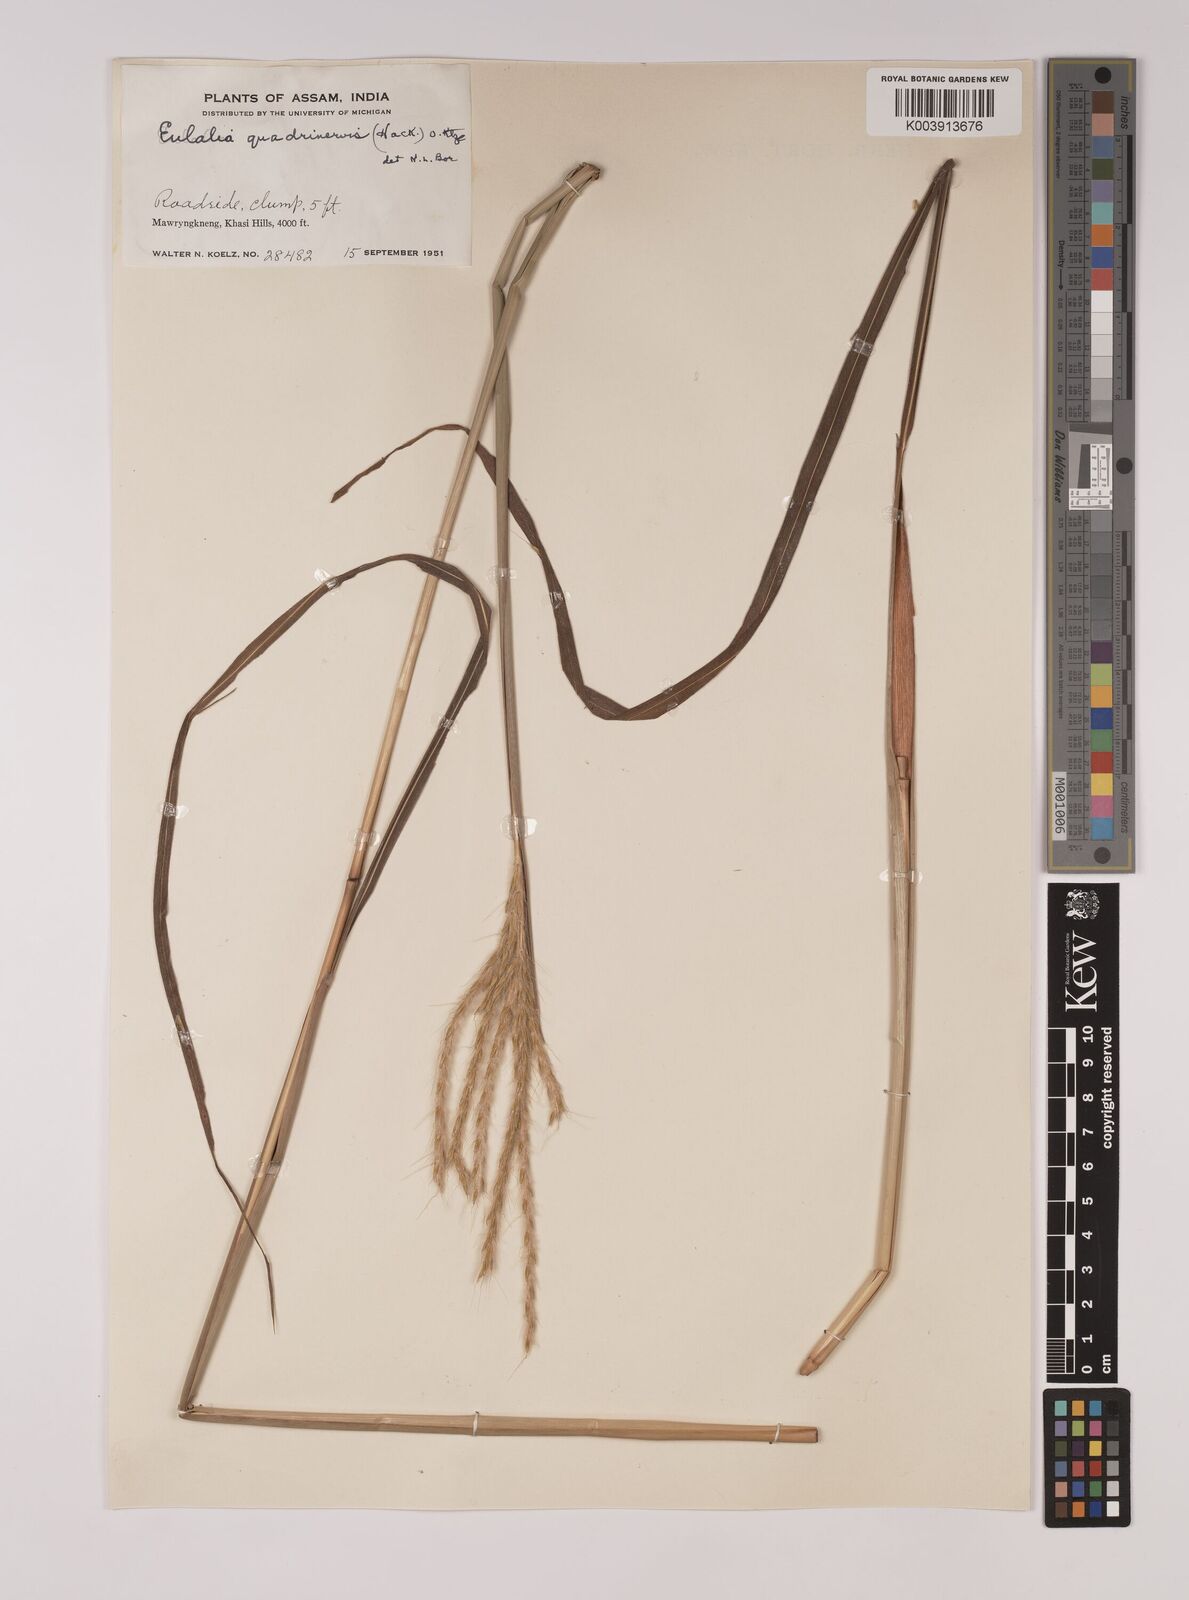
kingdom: Plantae
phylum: Tracheophyta
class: Liliopsida
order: Poales
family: Poaceae
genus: Pseudopogonatherum
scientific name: Pseudopogonatherum quadrinerve
